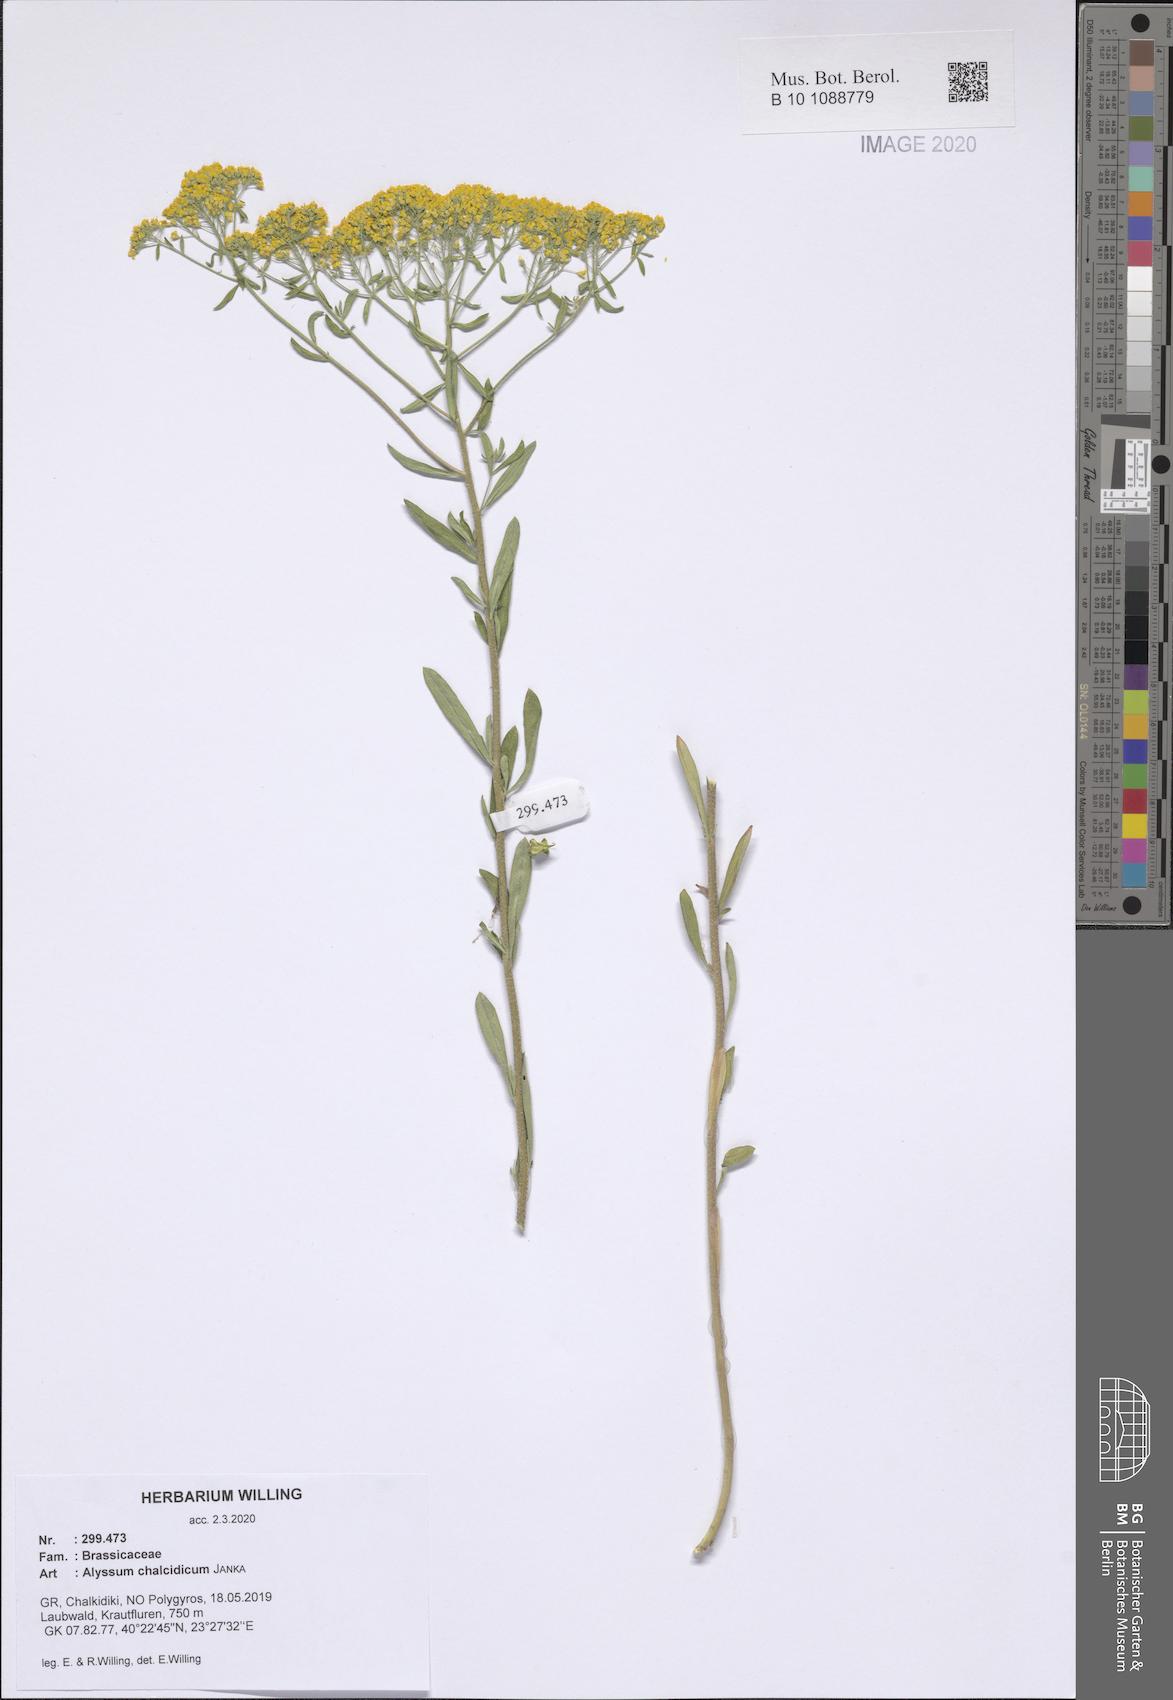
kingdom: Plantae
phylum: Tracheophyta
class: Magnoliopsida
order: Brassicales
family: Brassicaceae
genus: Odontarrhena
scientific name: Odontarrhena chalcidica
